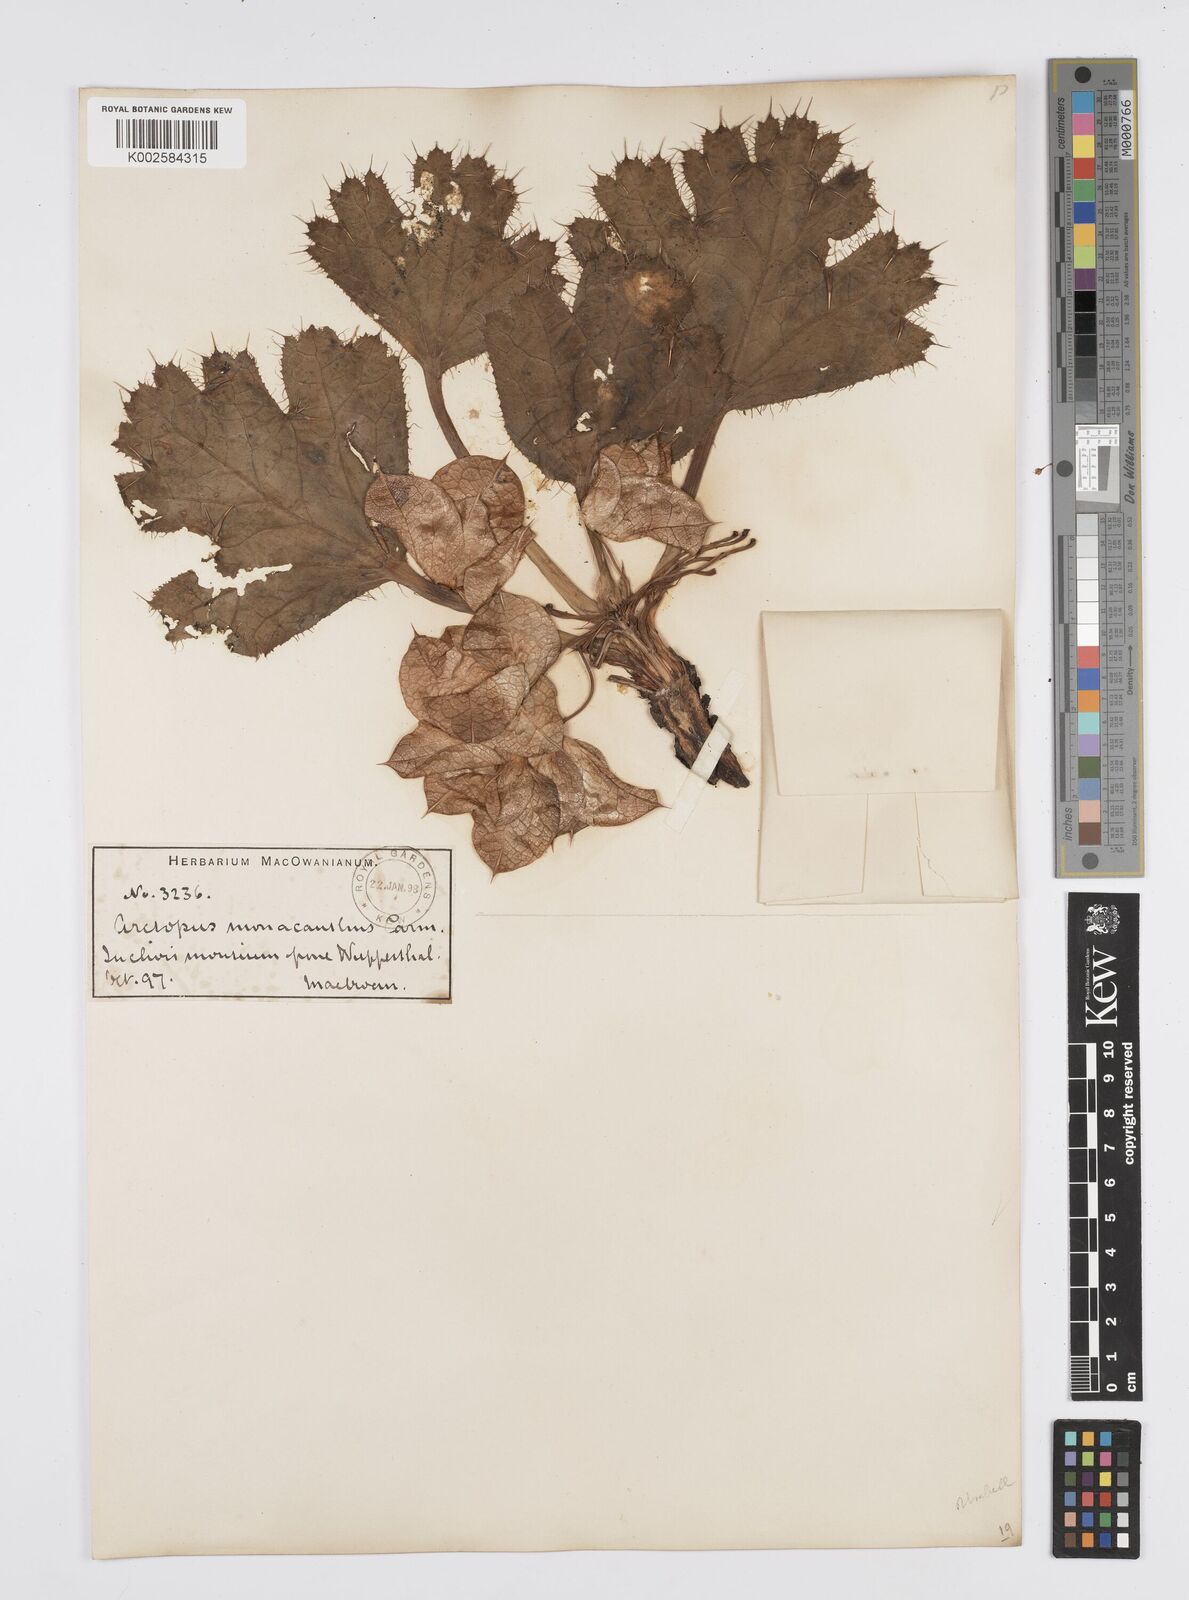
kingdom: Plantae
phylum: Tracheophyta
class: Magnoliopsida
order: Apiales
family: Apiaceae
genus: Arctopus
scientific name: Arctopus monacanthus
